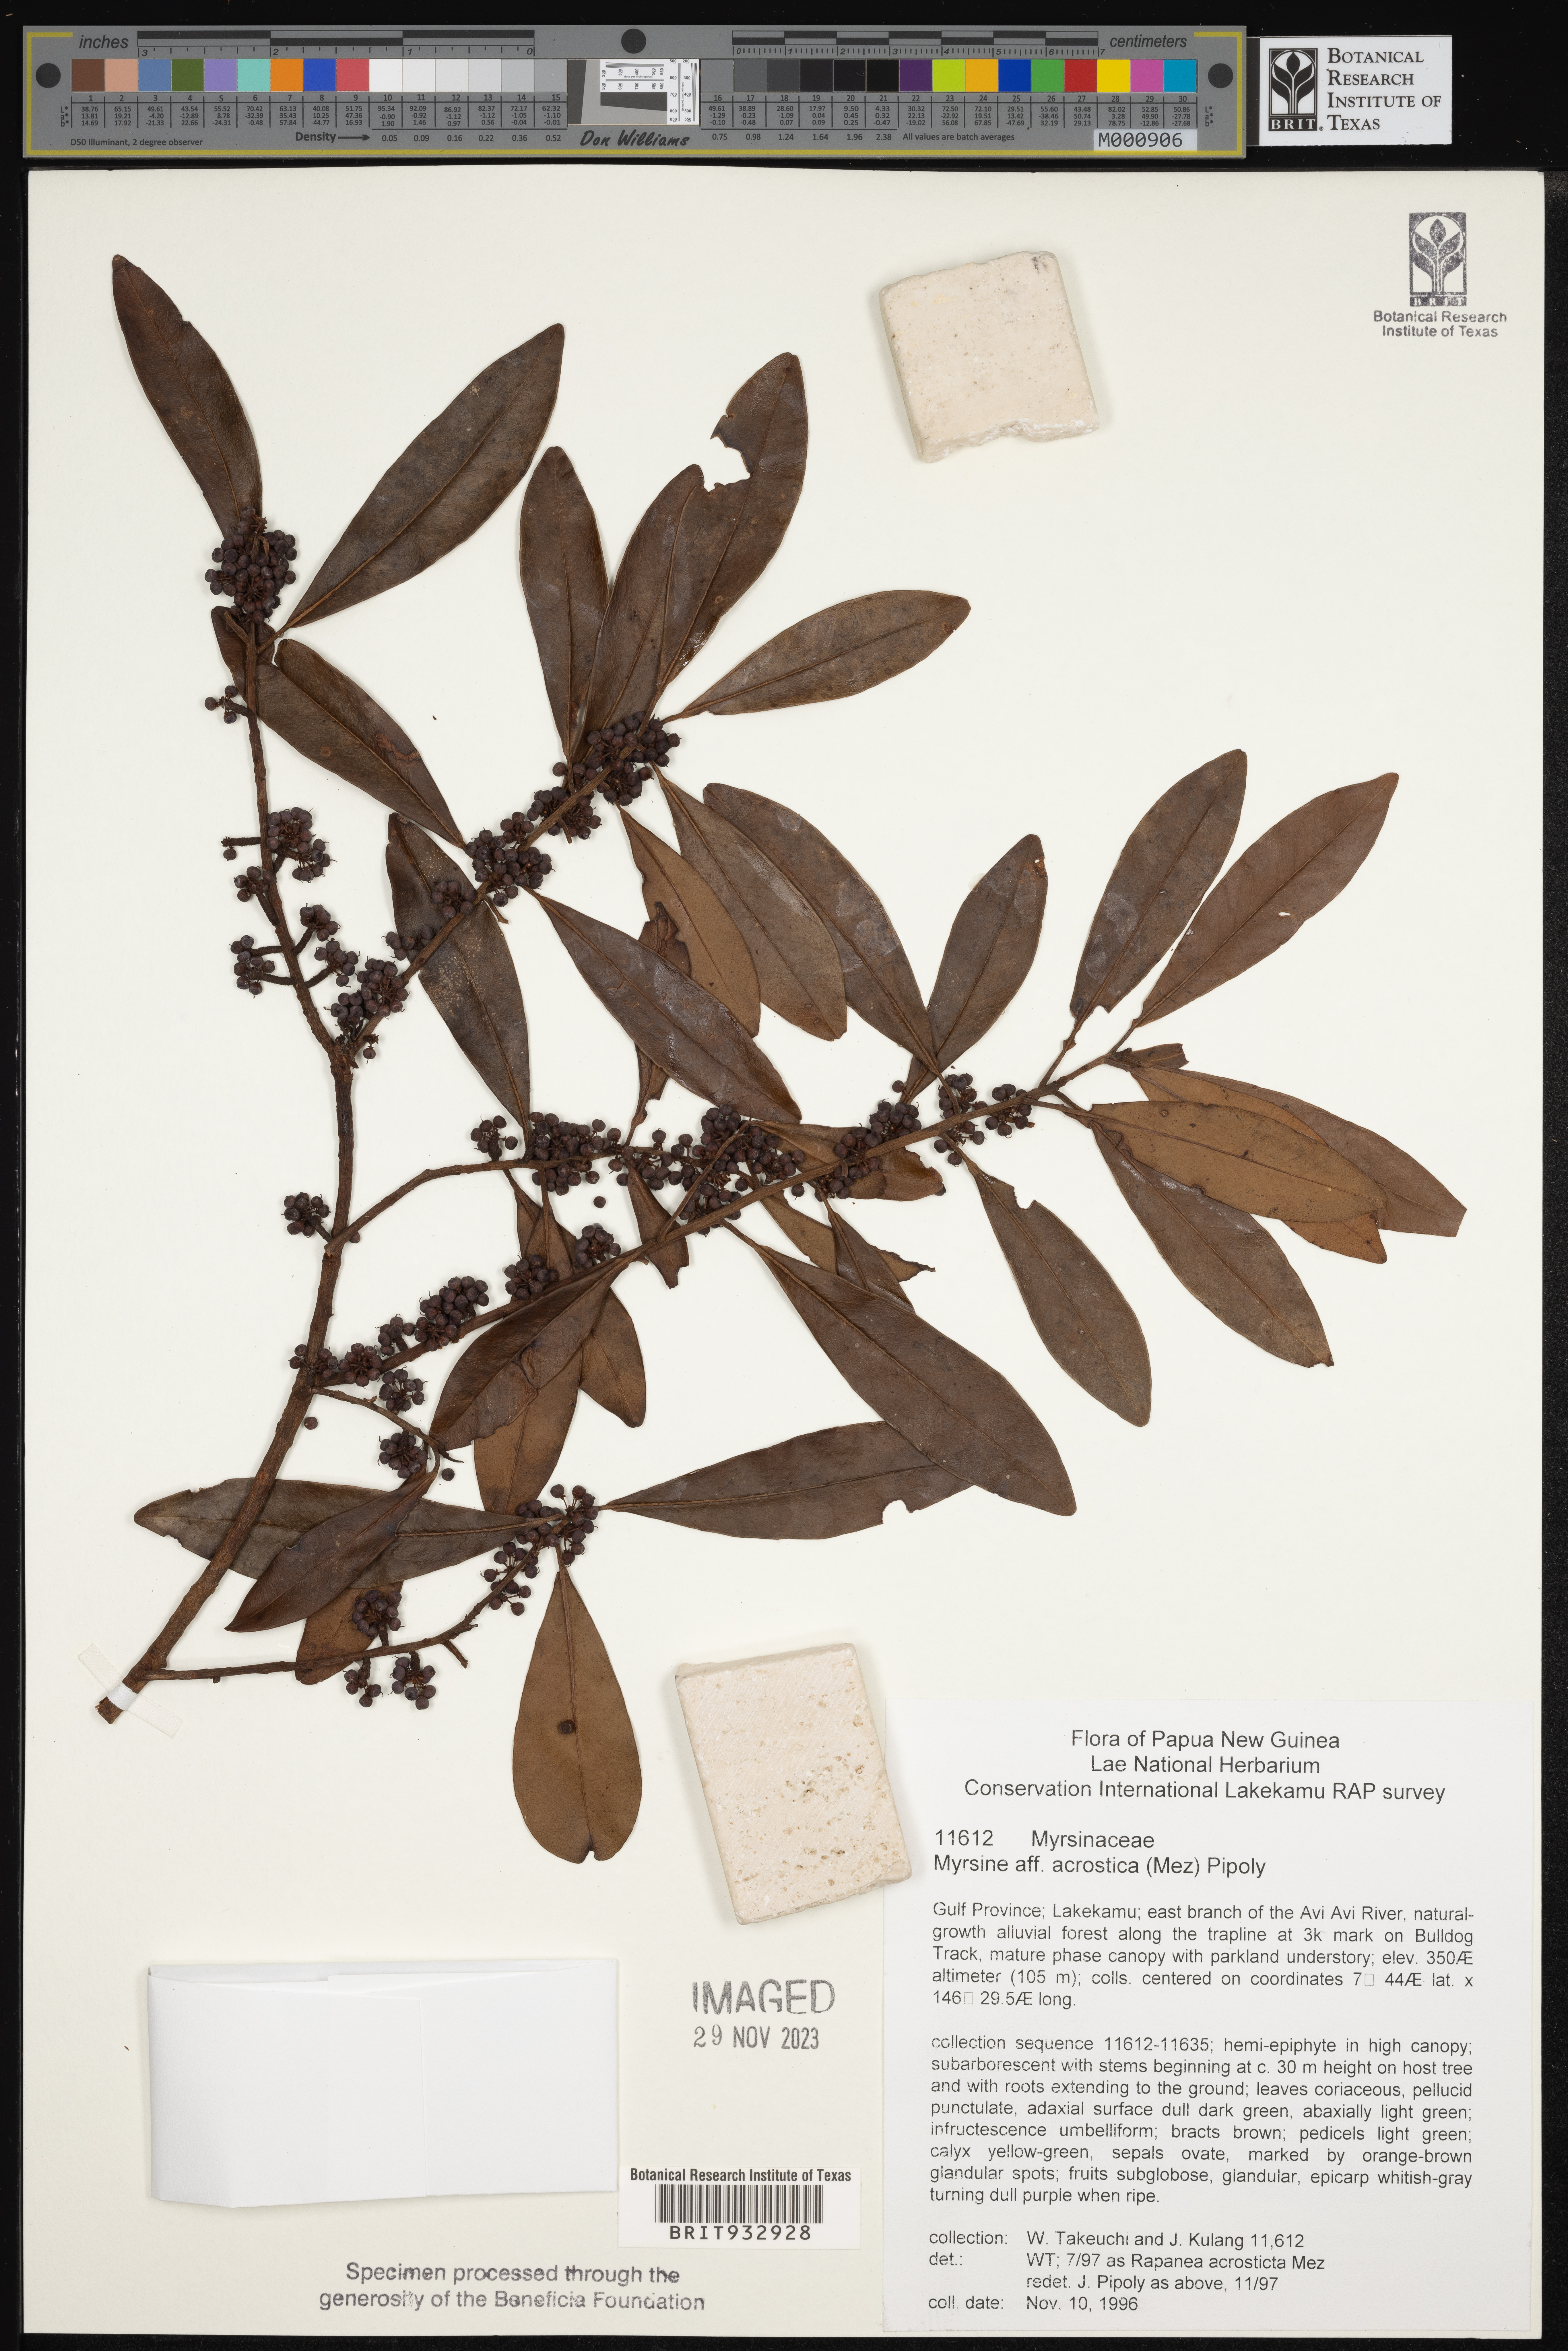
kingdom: Plantae
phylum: Tracheophyta
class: Magnoliopsida
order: Ericales
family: Primulaceae
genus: Myrsine
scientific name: Myrsine
